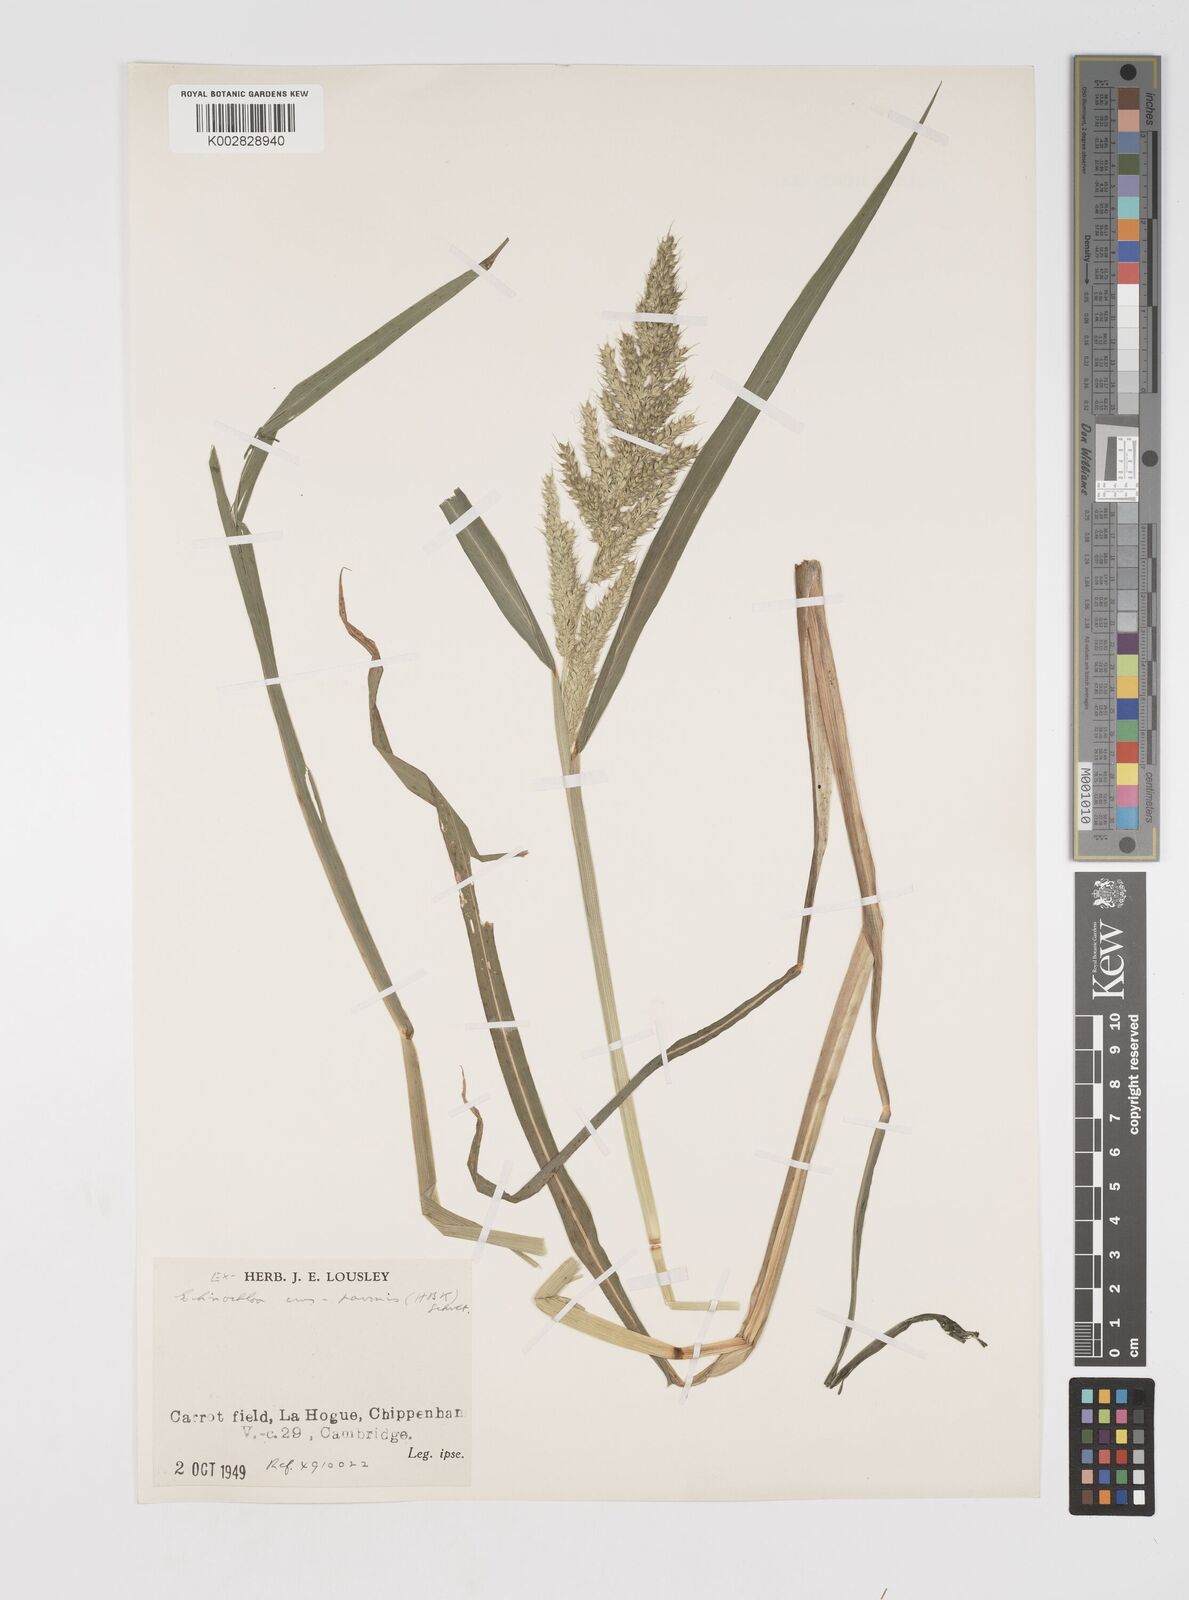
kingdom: Plantae
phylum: Tracheophyta
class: Liliopsida
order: Poales
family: Poaceae
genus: Echinochloa
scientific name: Echinochloa crus-pavonis
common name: Gulf cockspur grass
